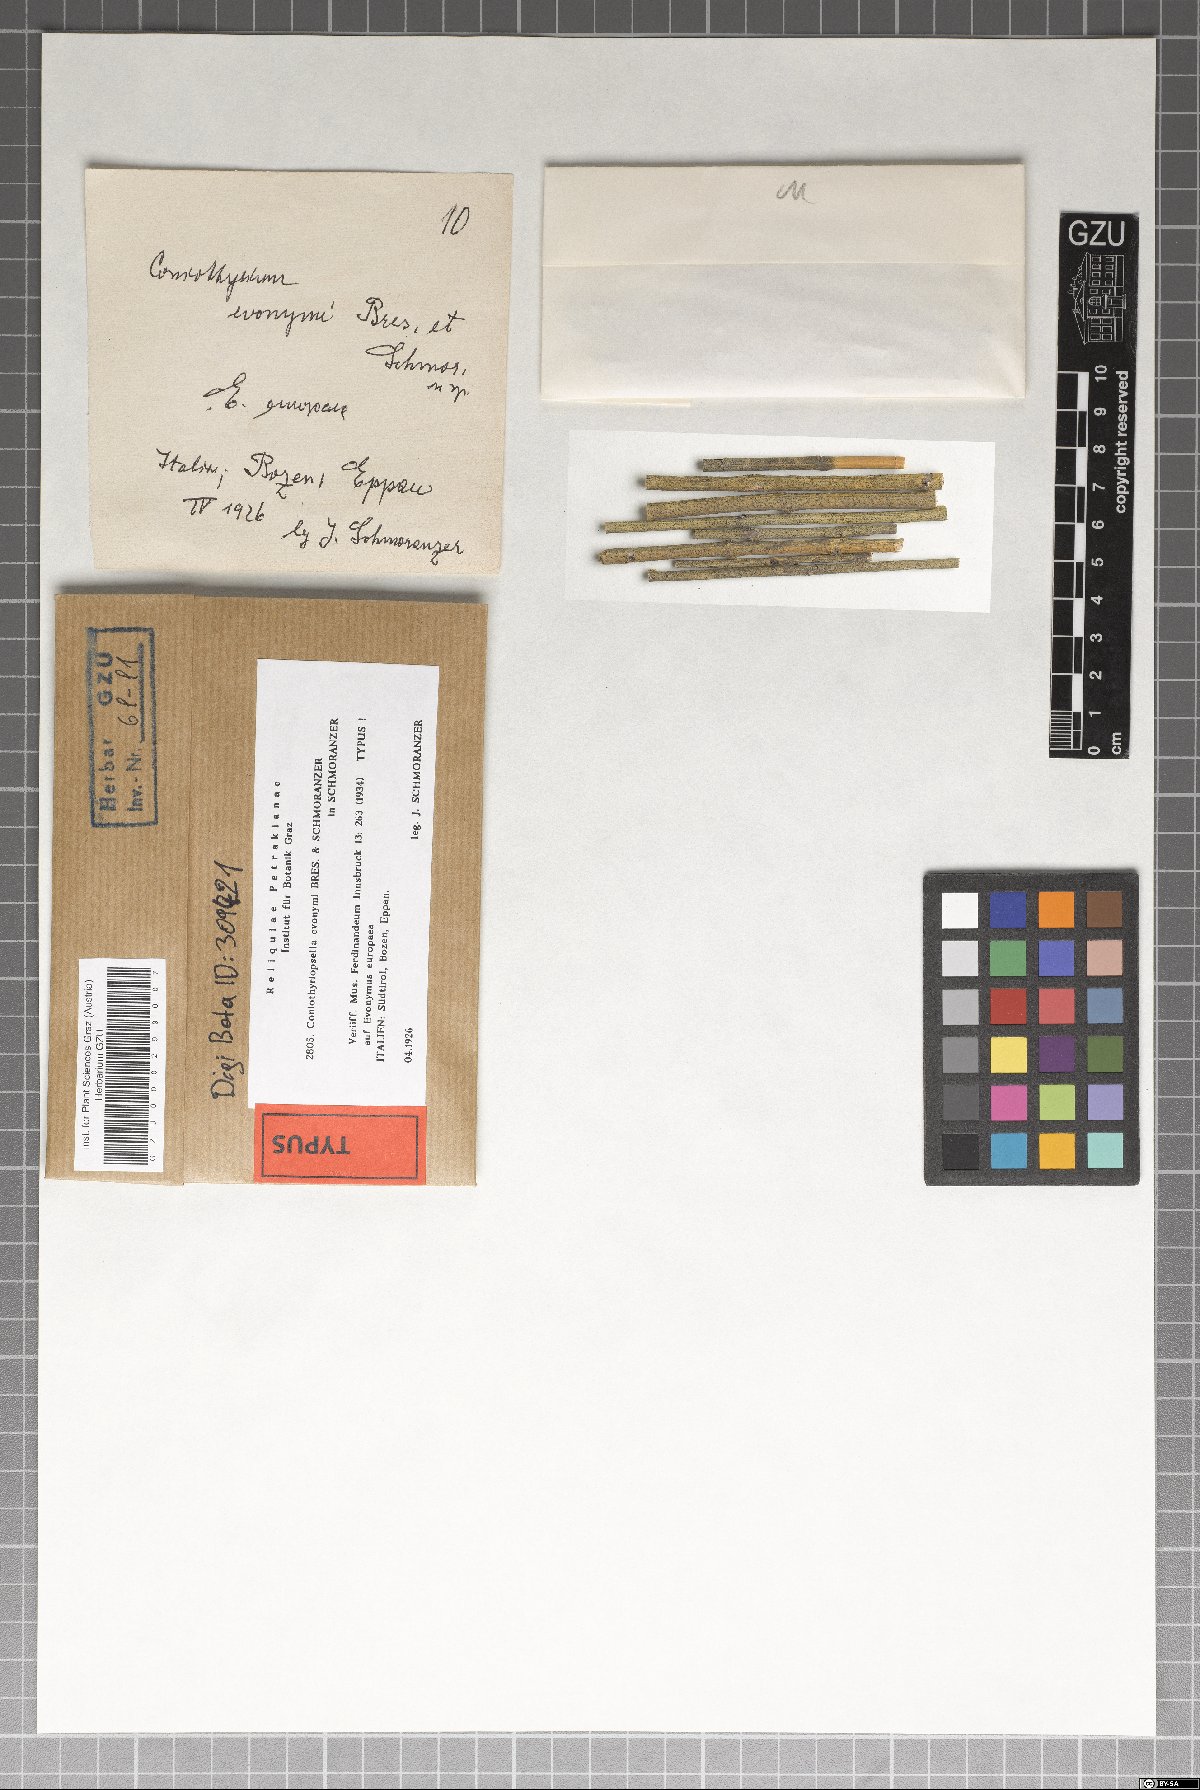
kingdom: Fungi
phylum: Ascomycota
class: Dothideomycetes
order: Pleosporales
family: Coniothyriaceae
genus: Coniothyrium
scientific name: Coniothyrium euonymi
